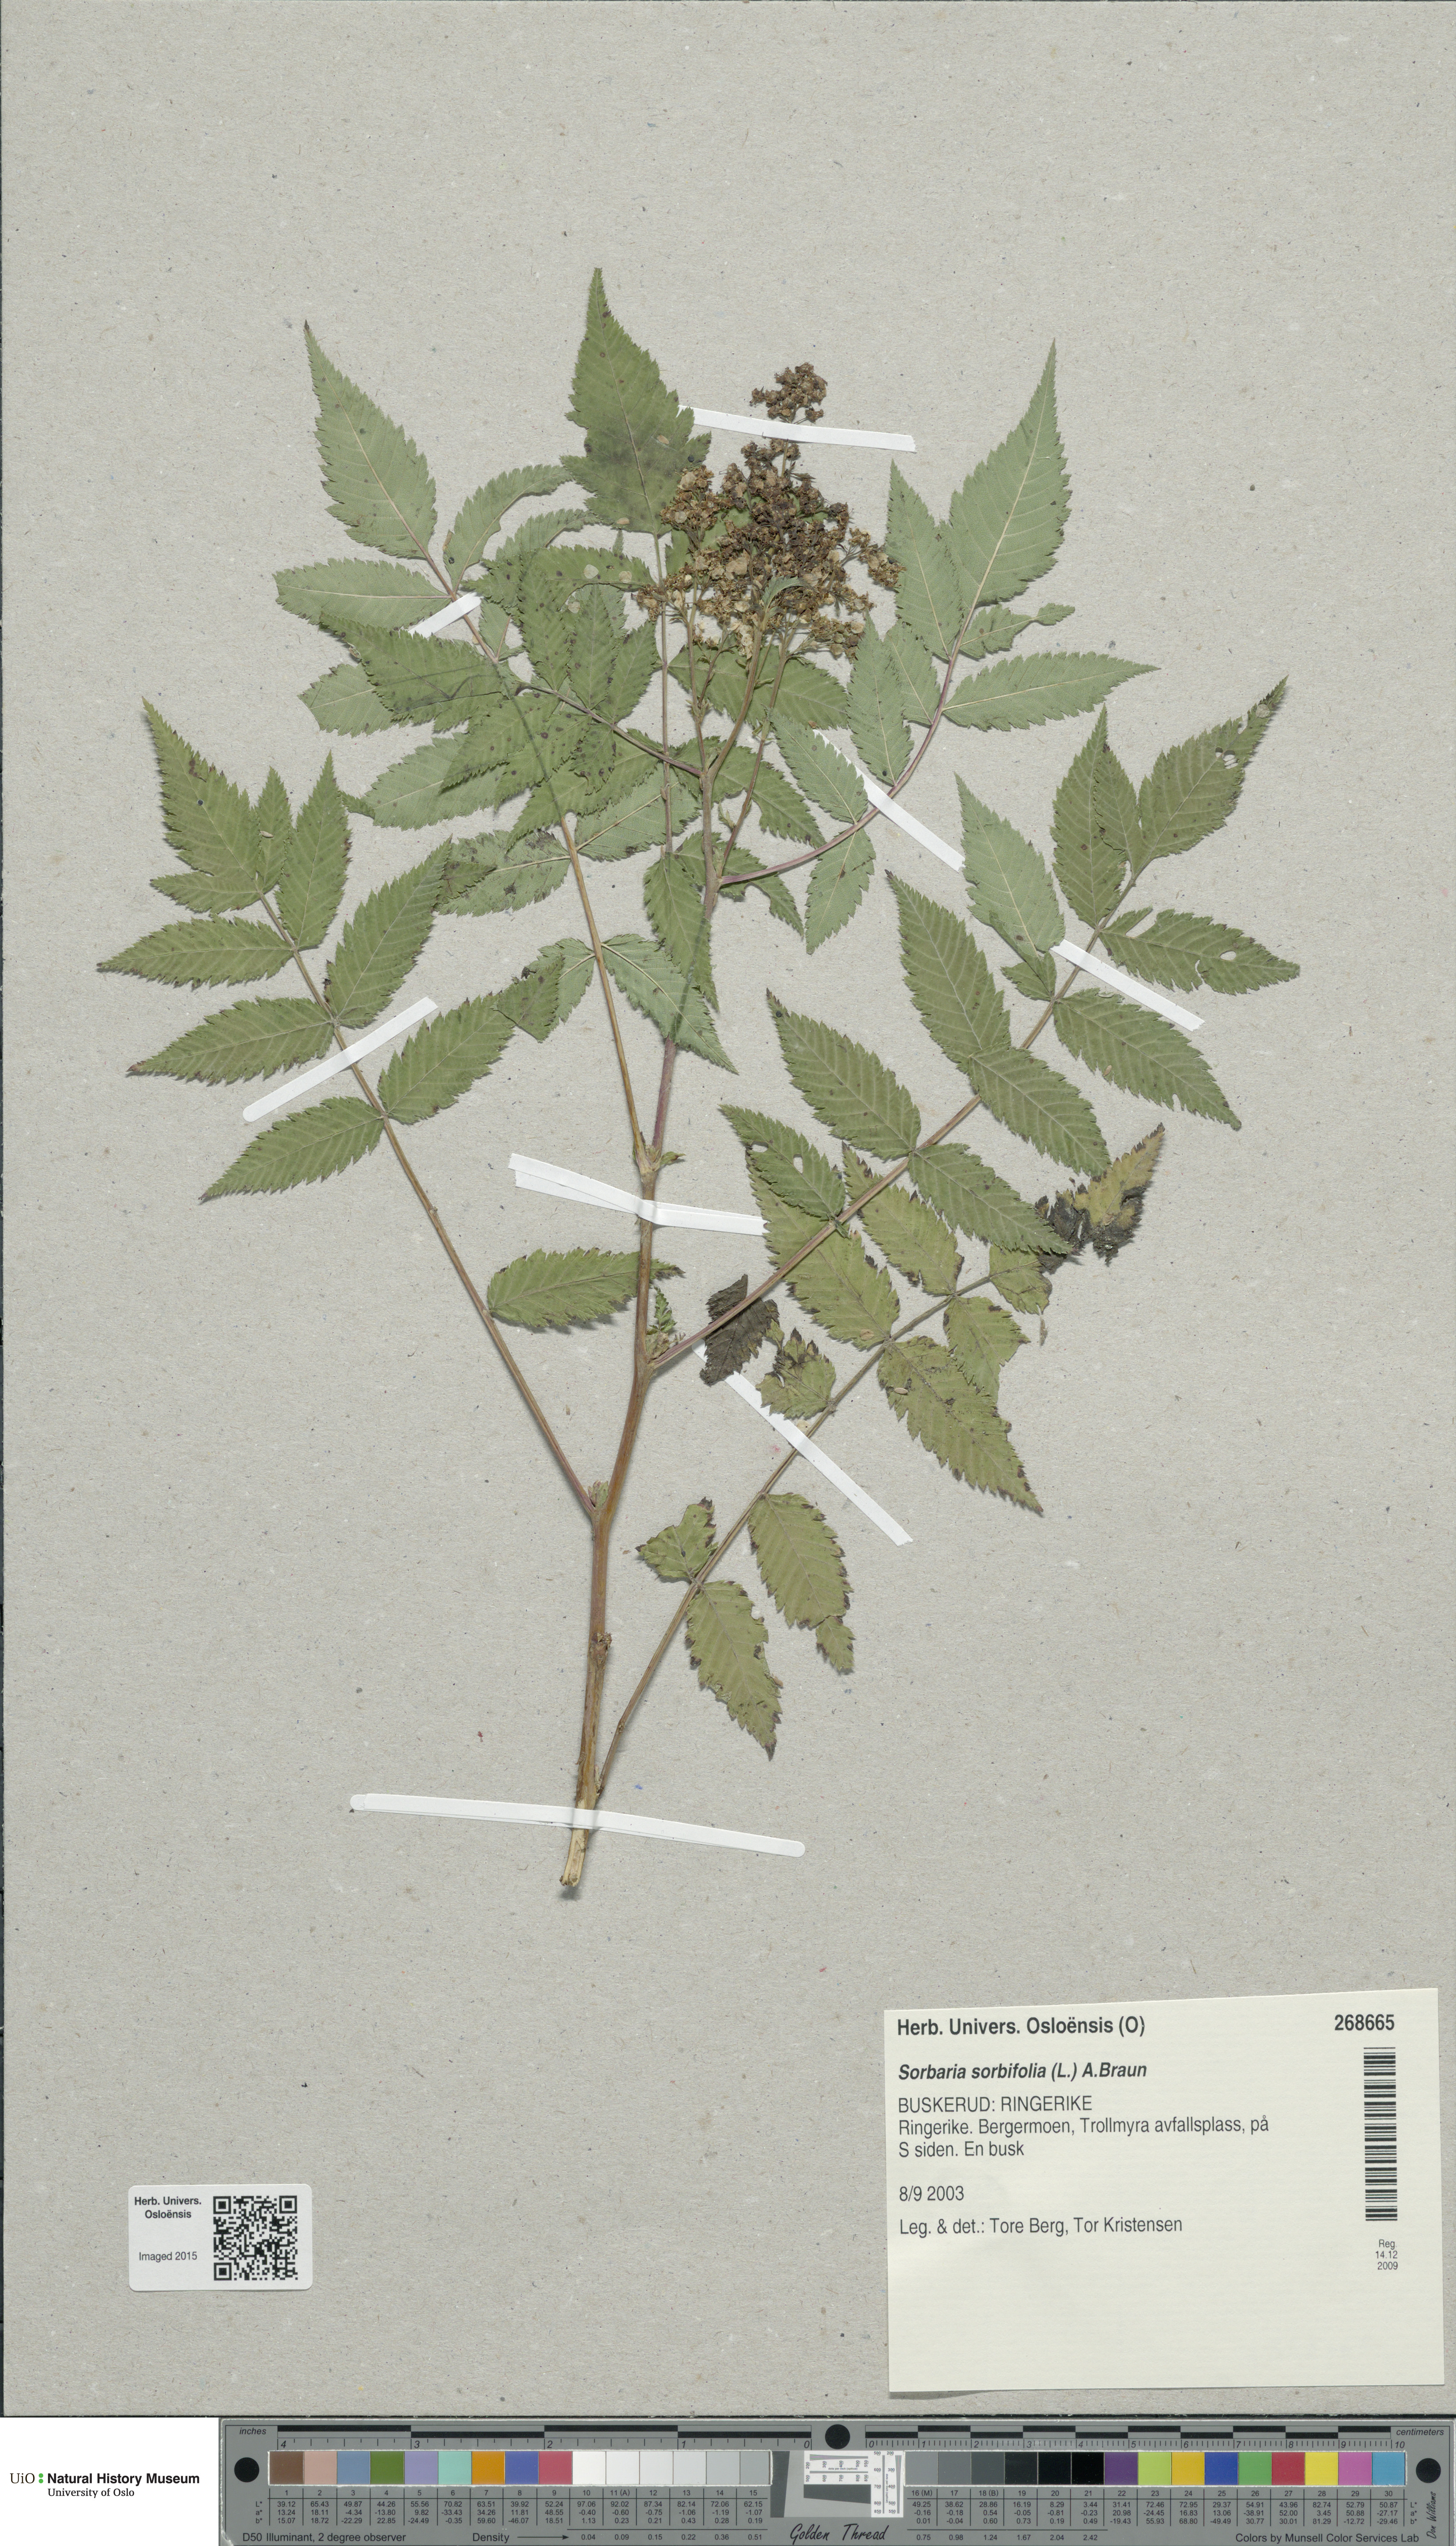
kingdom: Plantae
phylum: Tracheophyta
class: Magnoliopsida
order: Rosales
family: Rosaceae
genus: Sorbaria
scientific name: Sorbaria sorbifolia
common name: False spiraea
